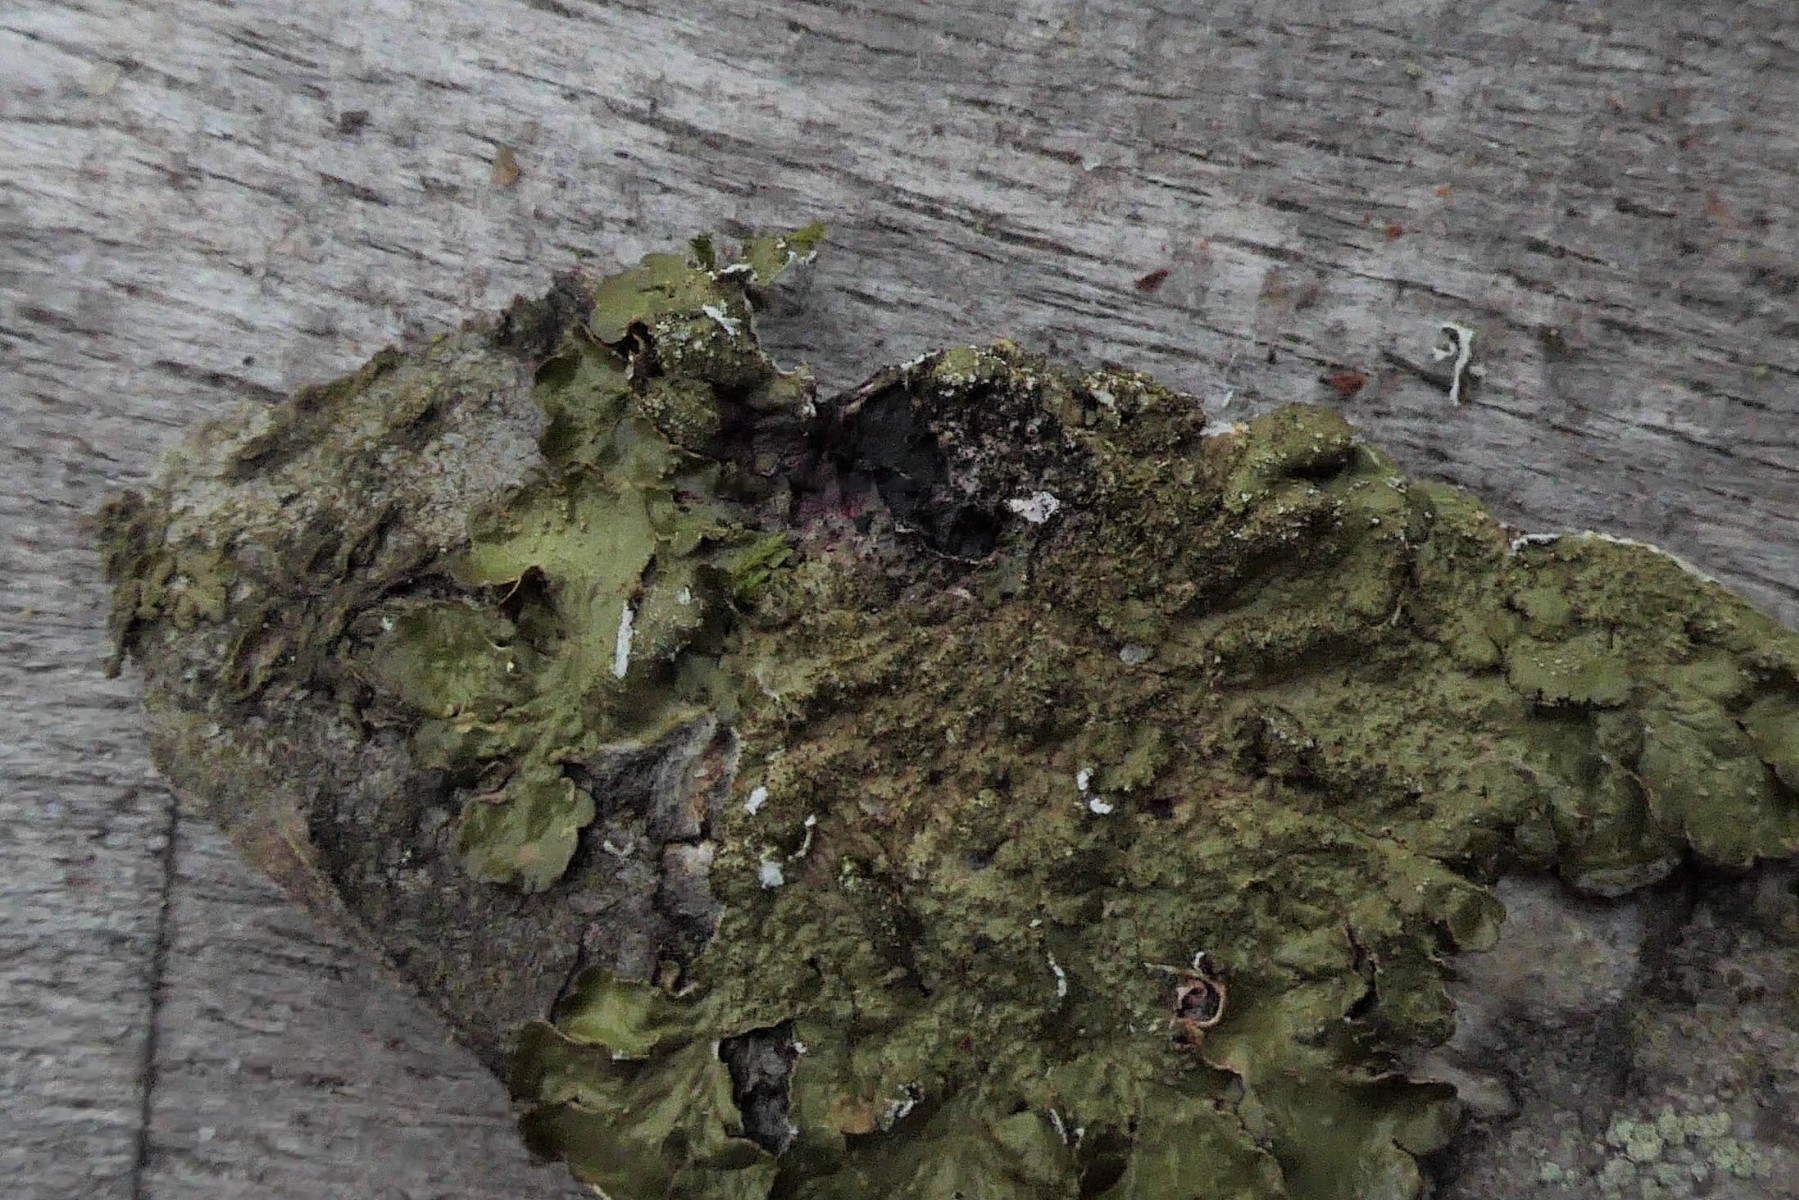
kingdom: Fungi
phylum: Ascomycota
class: Lecanoromycetes
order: Lecanorales
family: Parmeliaceae
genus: Melanelixia
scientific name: Melanelixia glabratula
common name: glinsende skållav
